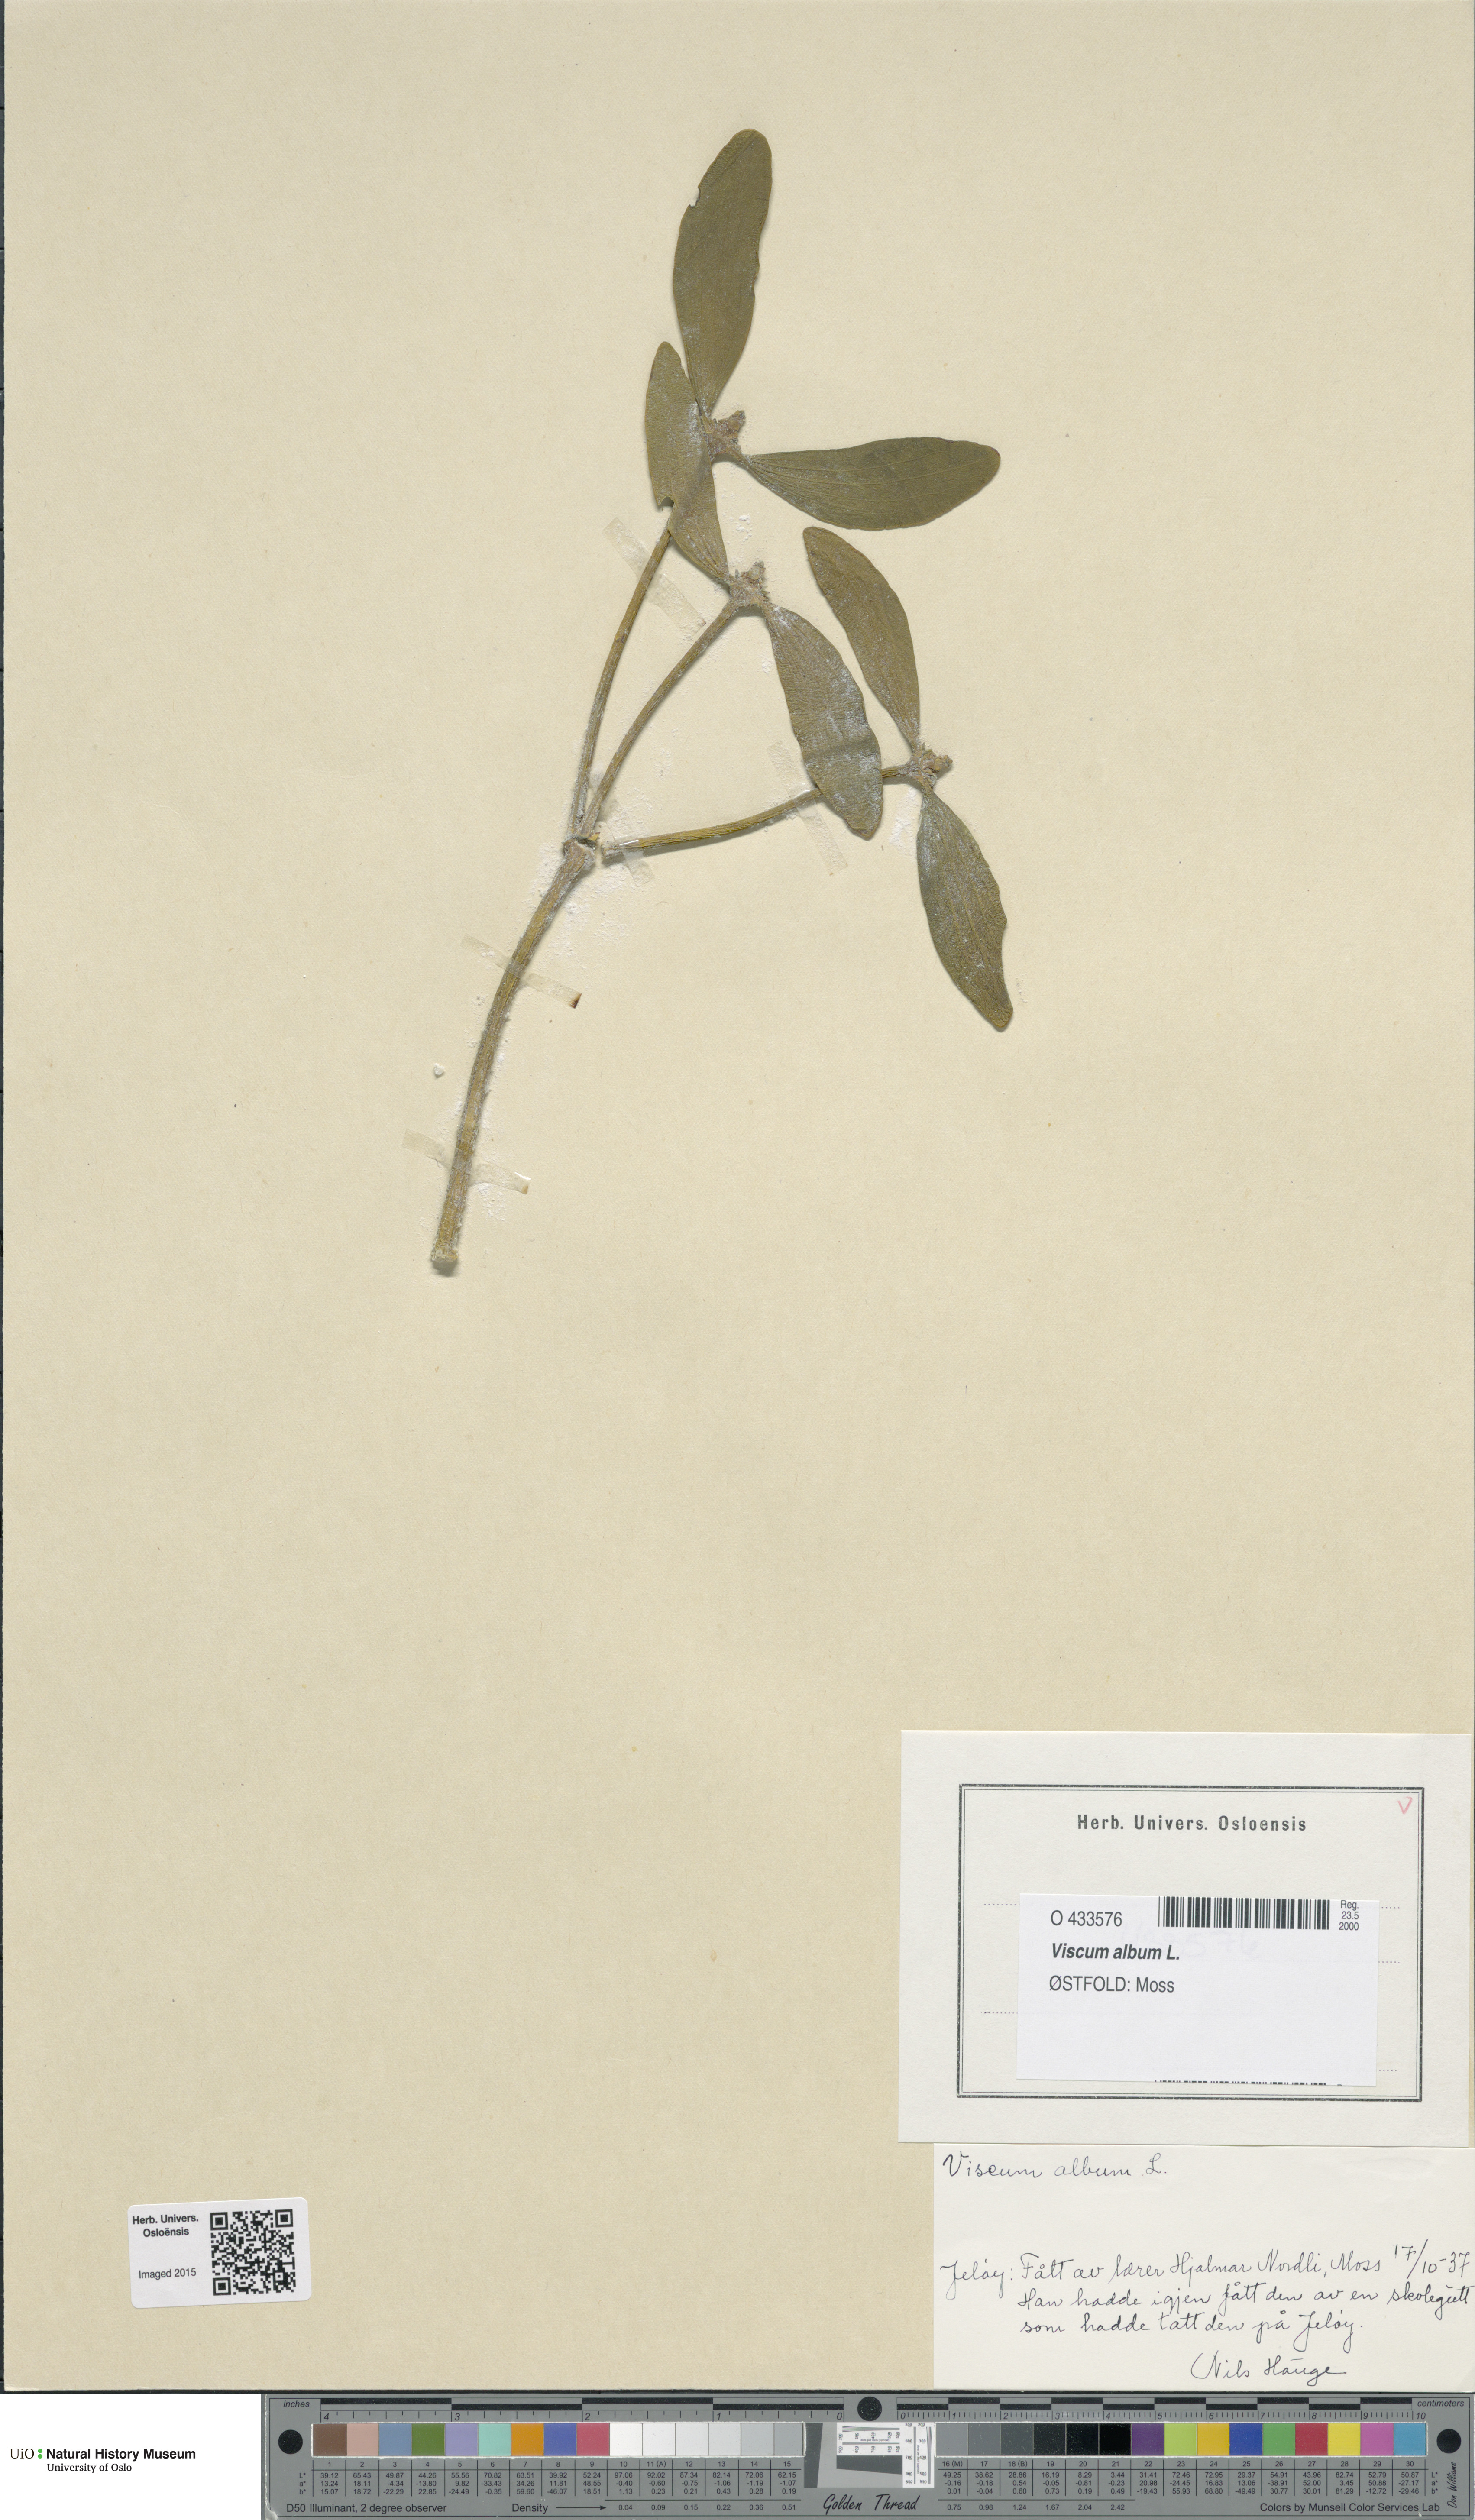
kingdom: Plantae
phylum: Tracheophyta
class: Magnoliopsida
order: Santalales
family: Viscaceae
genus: Viscum
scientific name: Viscum album
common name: Mistletoe
